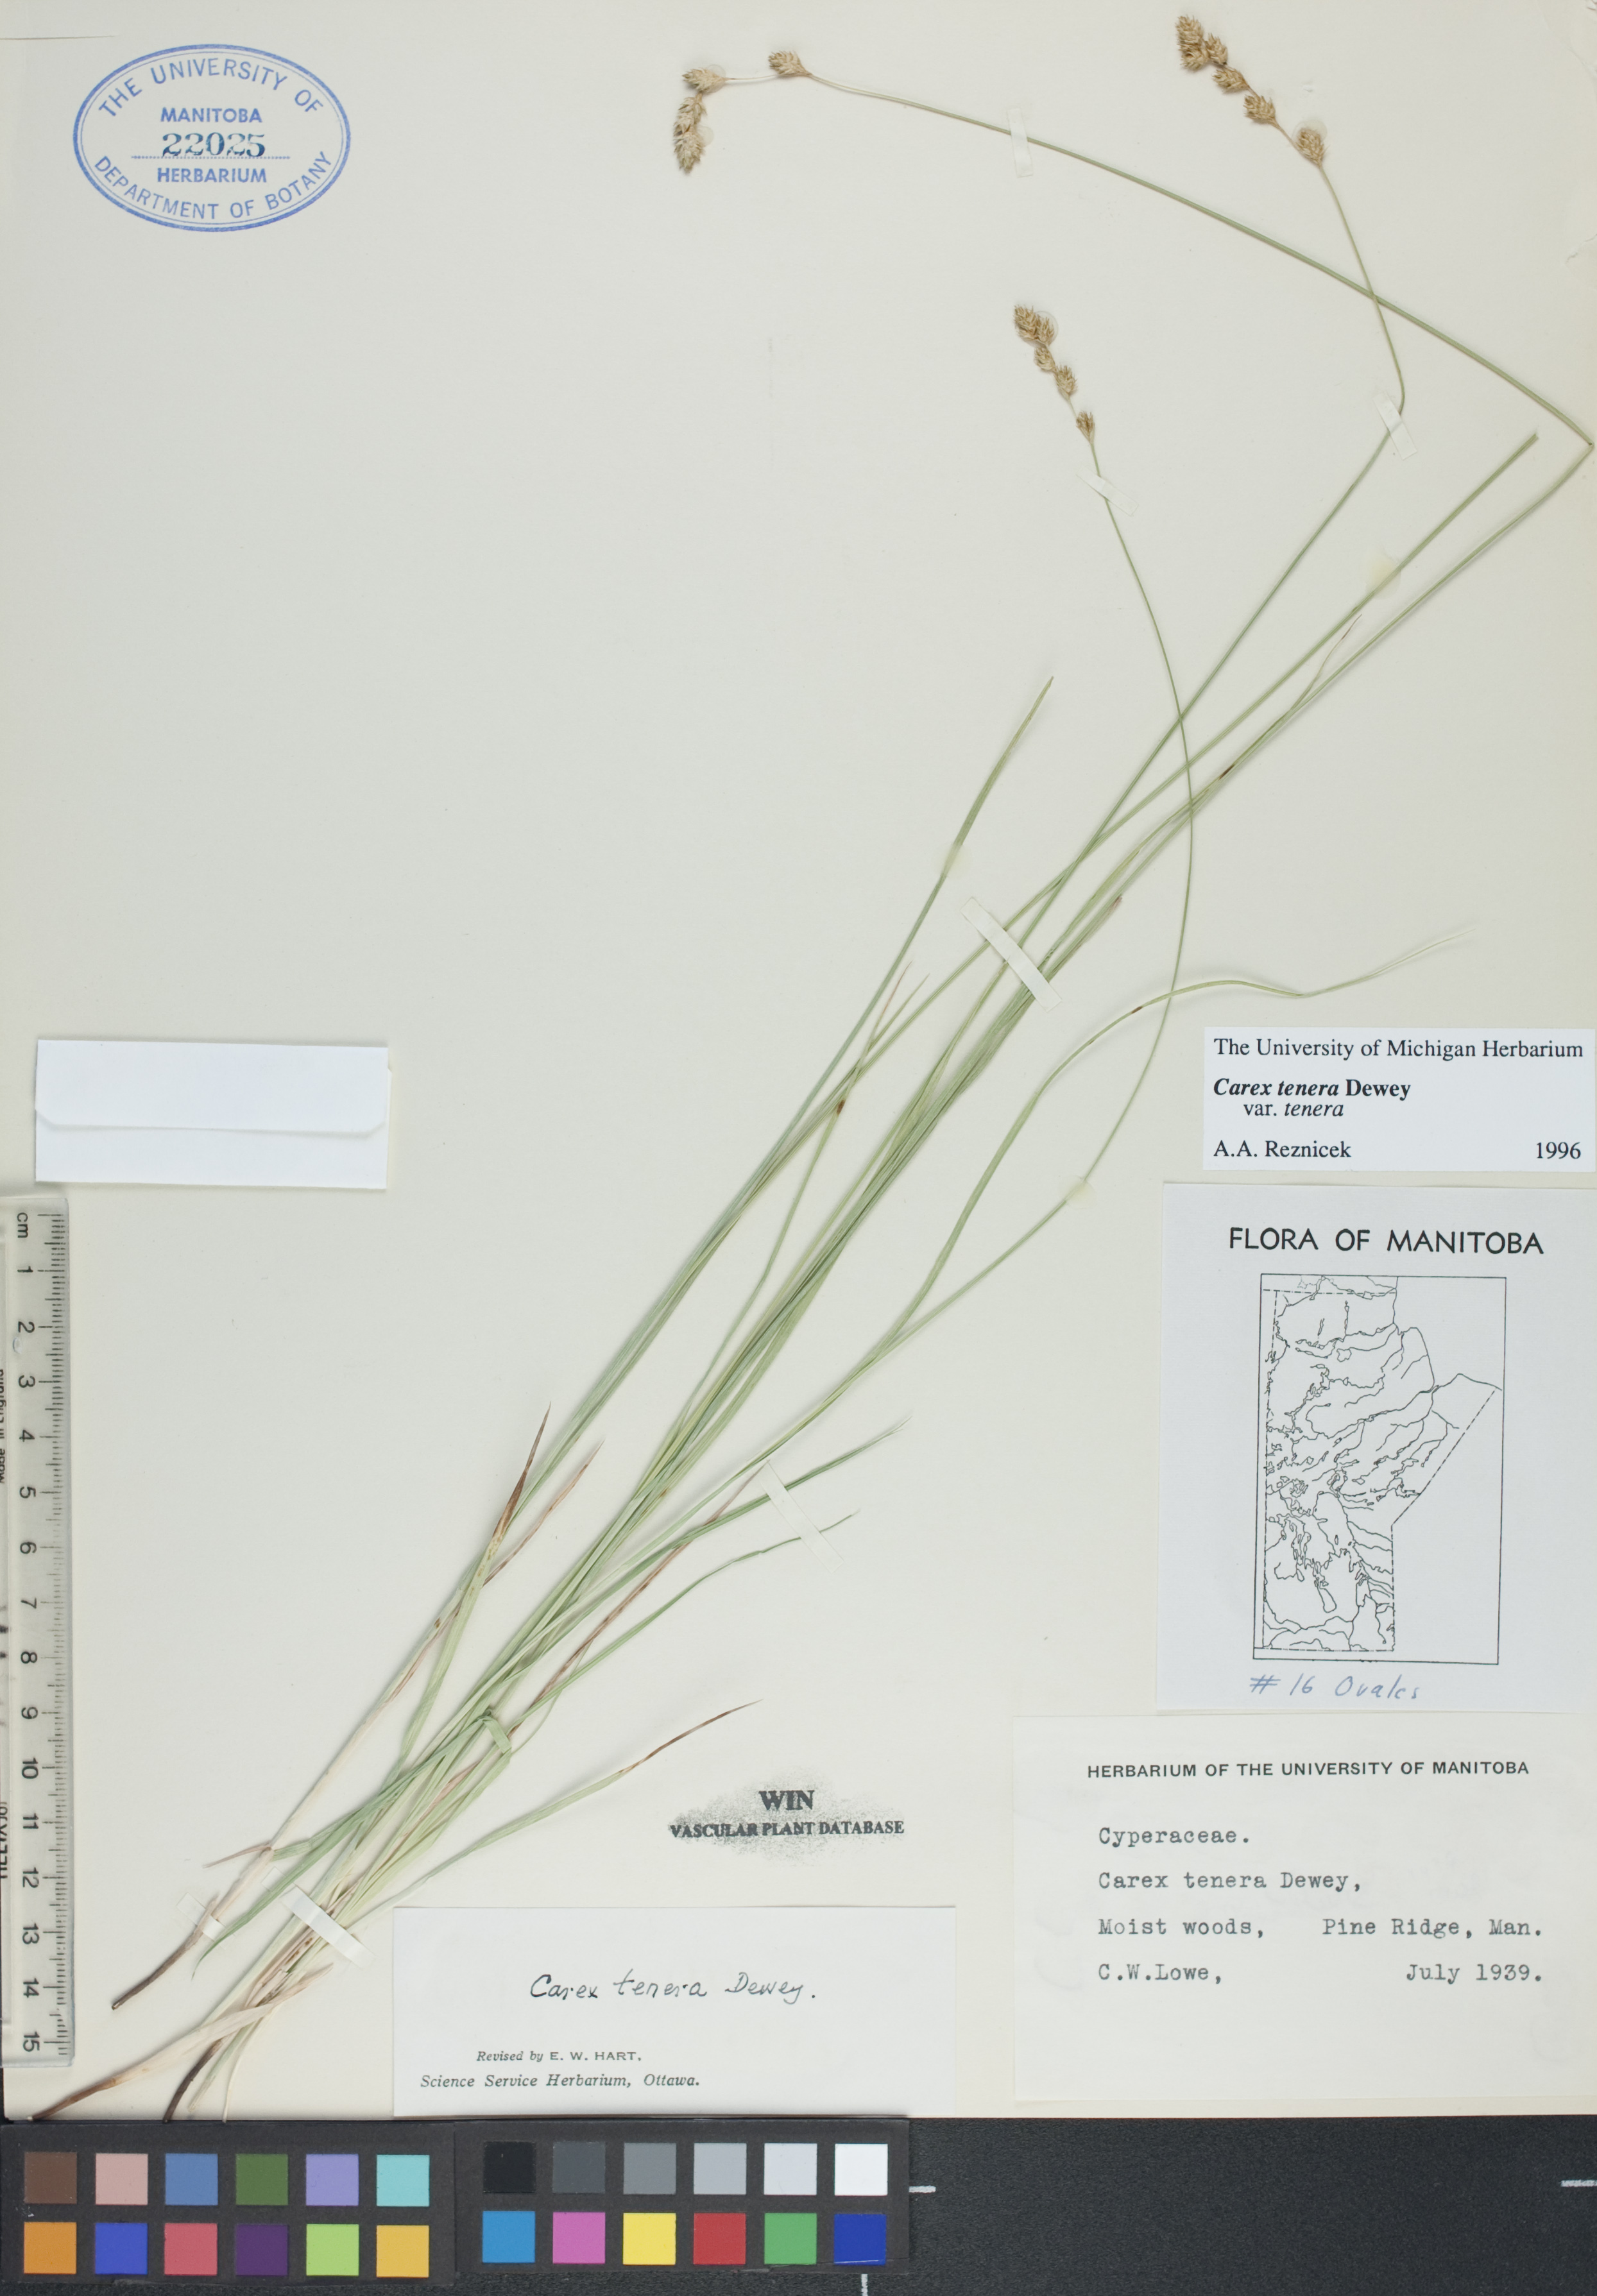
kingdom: Plantae
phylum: Tracheophyta
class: Liliopsida
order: Poales
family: Cyperaceae
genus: Carex
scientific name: Carex tenera
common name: Broad-fruited sedge
